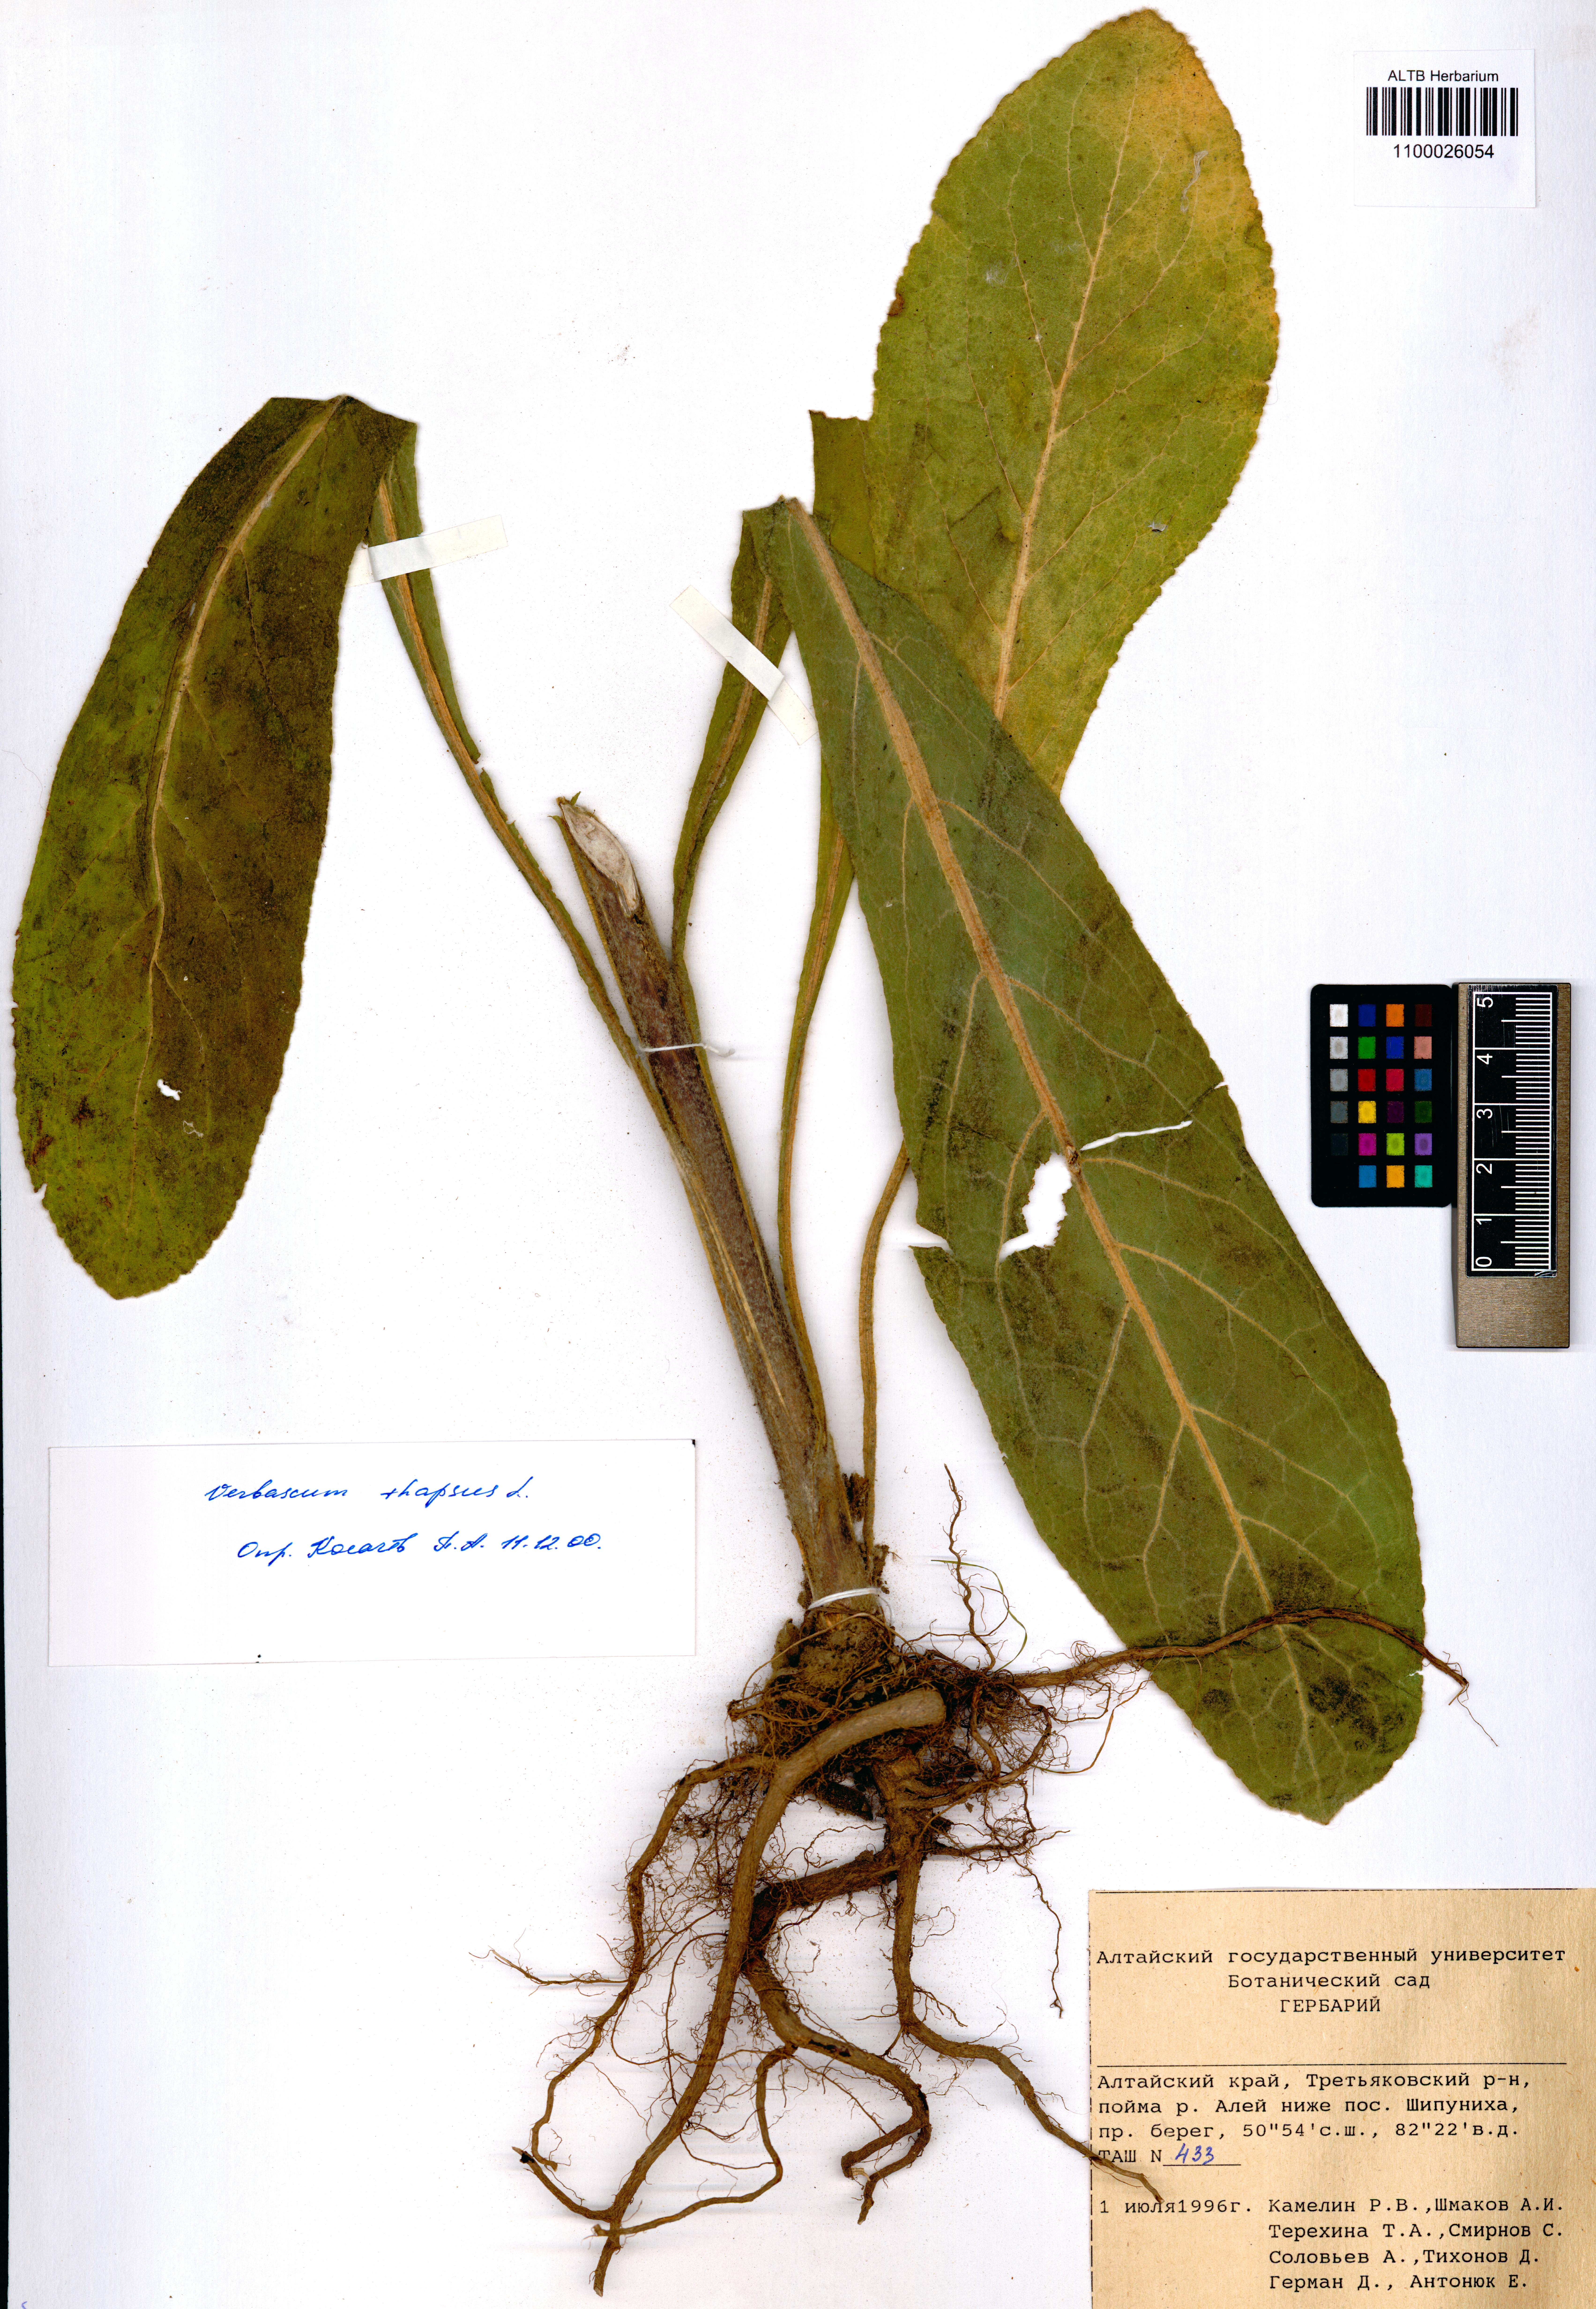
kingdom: Plantae
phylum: Tracheophyta
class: Magnoliopsida
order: Lamiales
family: Scrophulariaceae
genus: Verbascum
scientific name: Verbascum thapsus
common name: Common mullein
